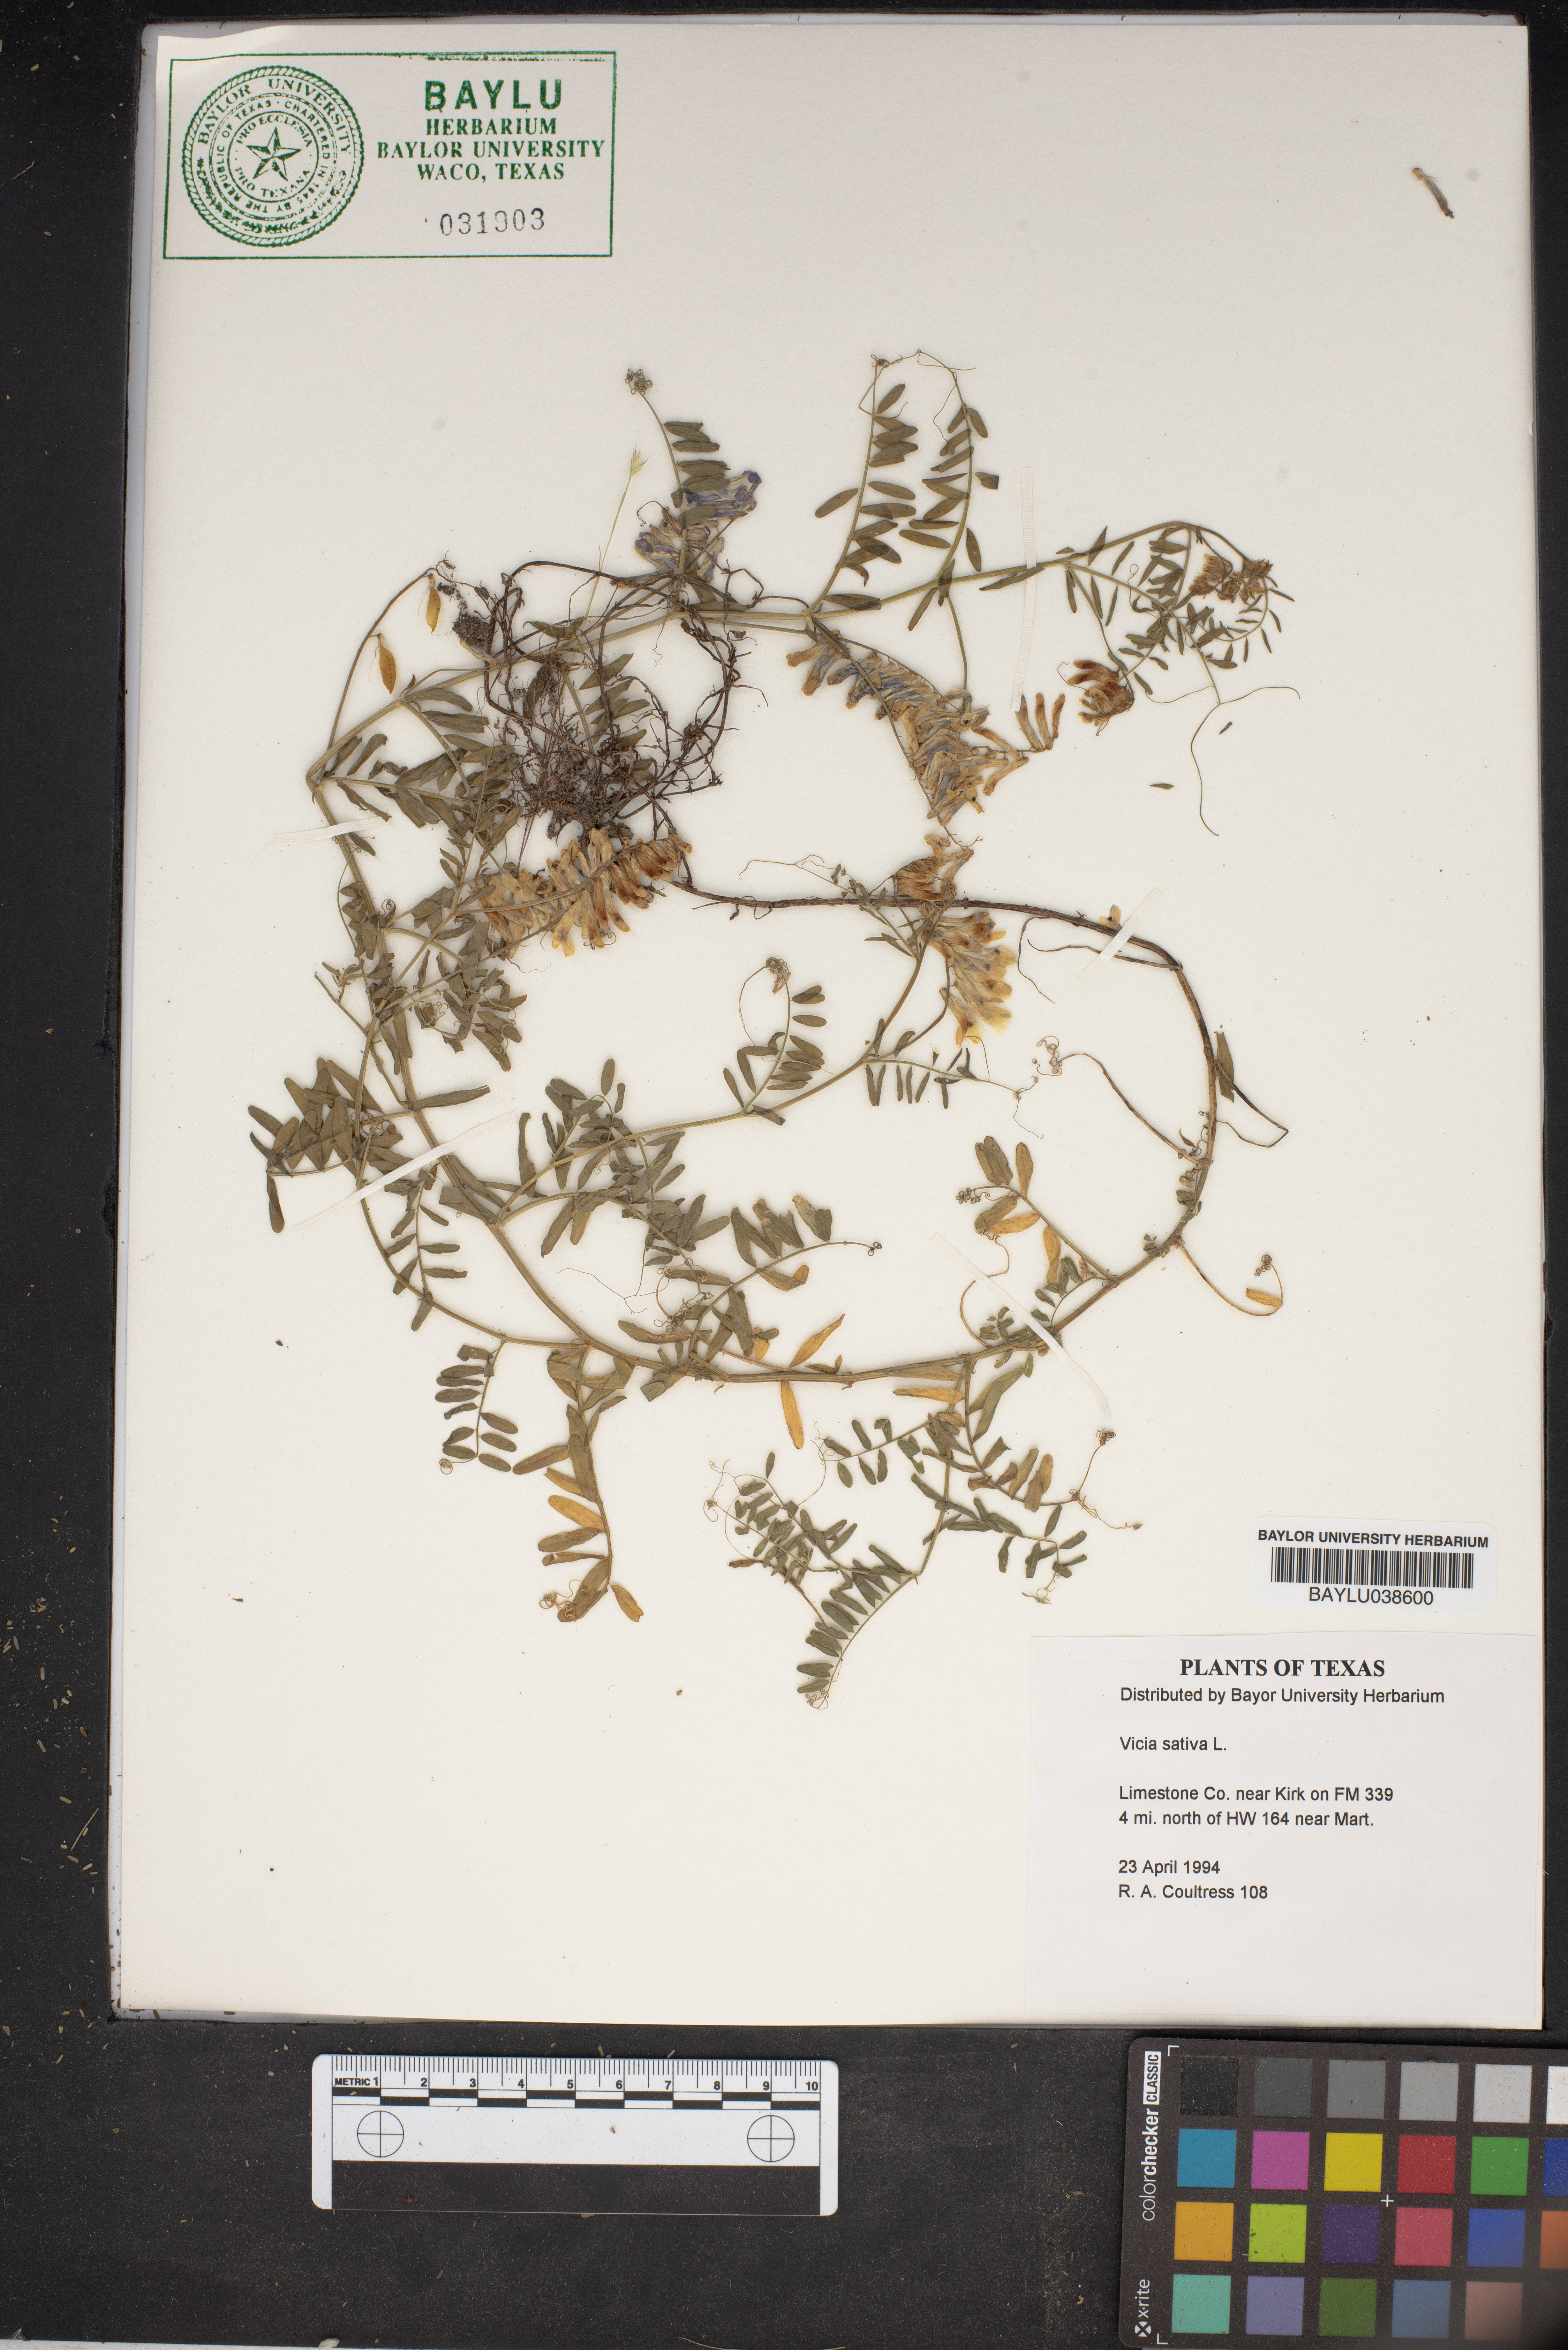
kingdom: Plantae
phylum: Tracheophyta
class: Magnoliopsida
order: Fabales
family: Fabaceae
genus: Vicia
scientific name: Vicia sativa
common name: Garden vetch
